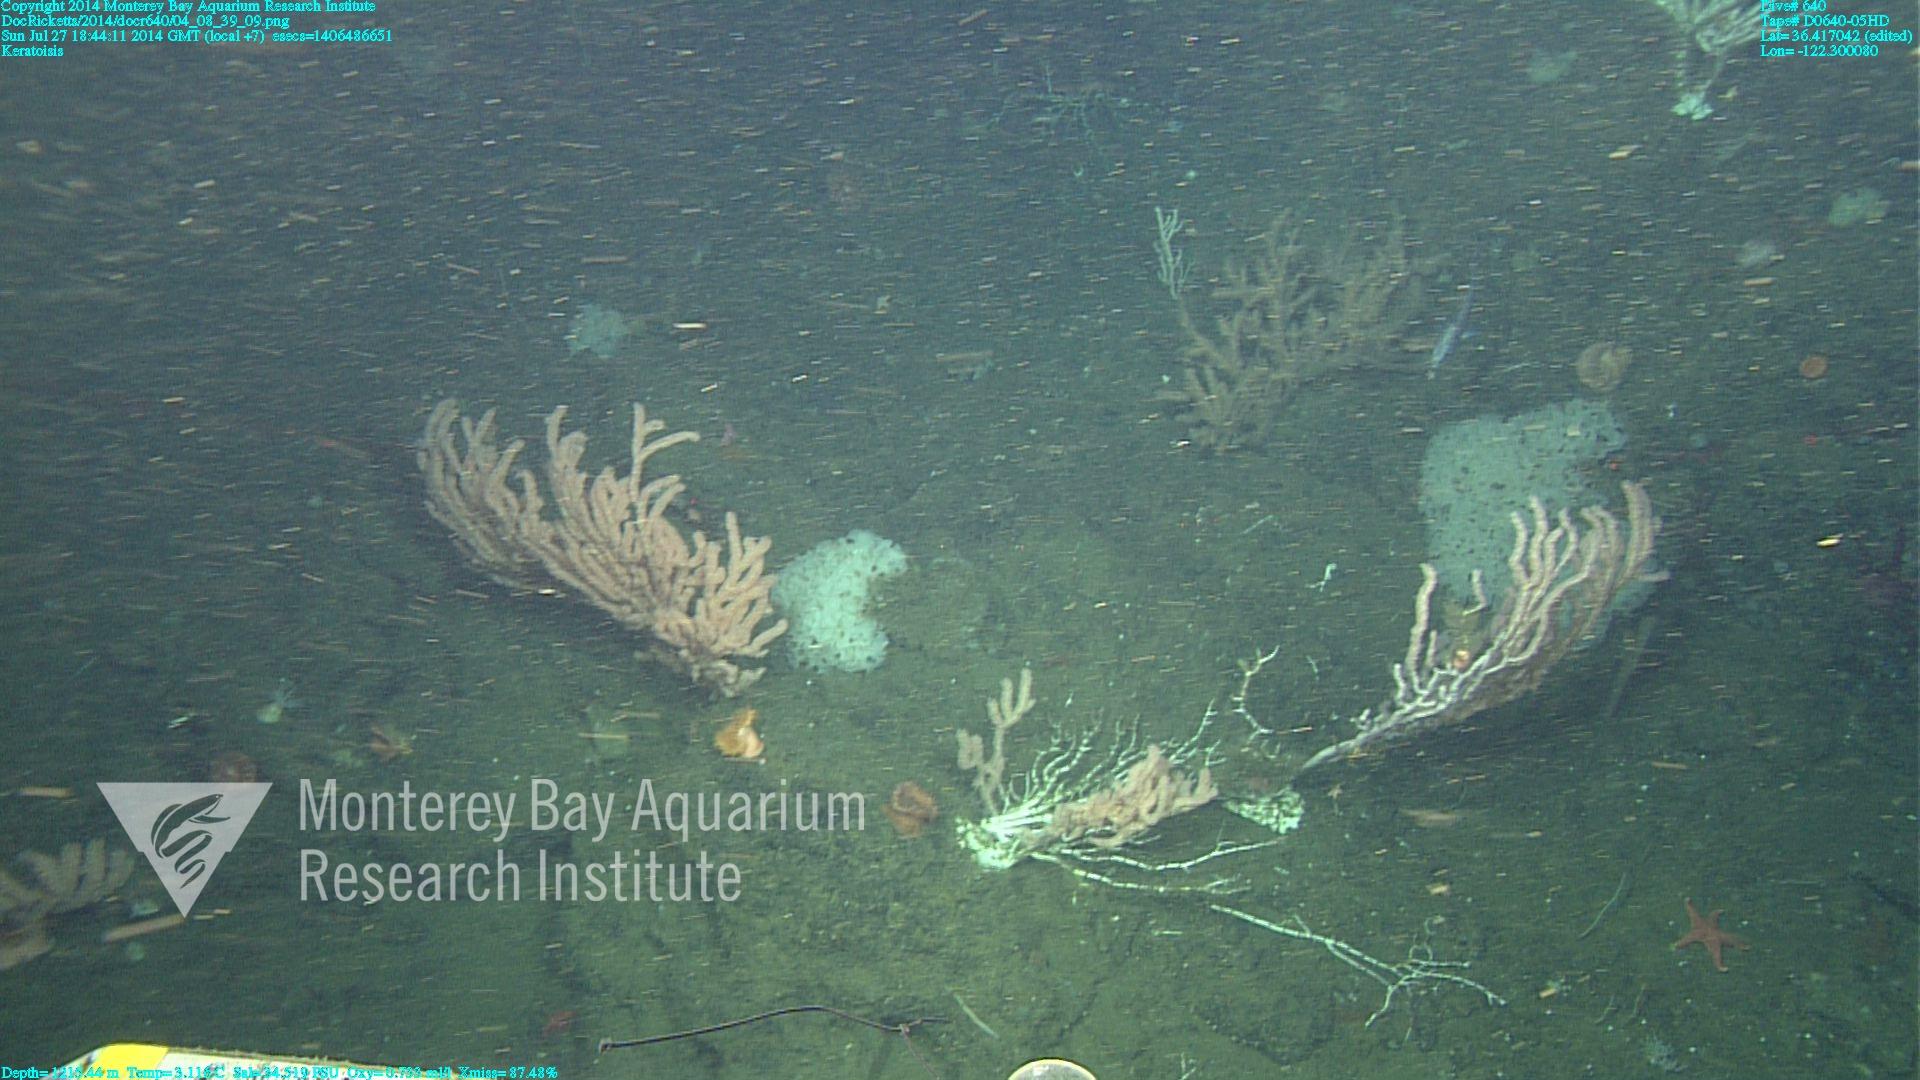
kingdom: Animalia
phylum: Cnidaria
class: Anthozoa
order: Scleralcyonacea
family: Keratoisididae
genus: Keratoisis
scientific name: Keratoisis
